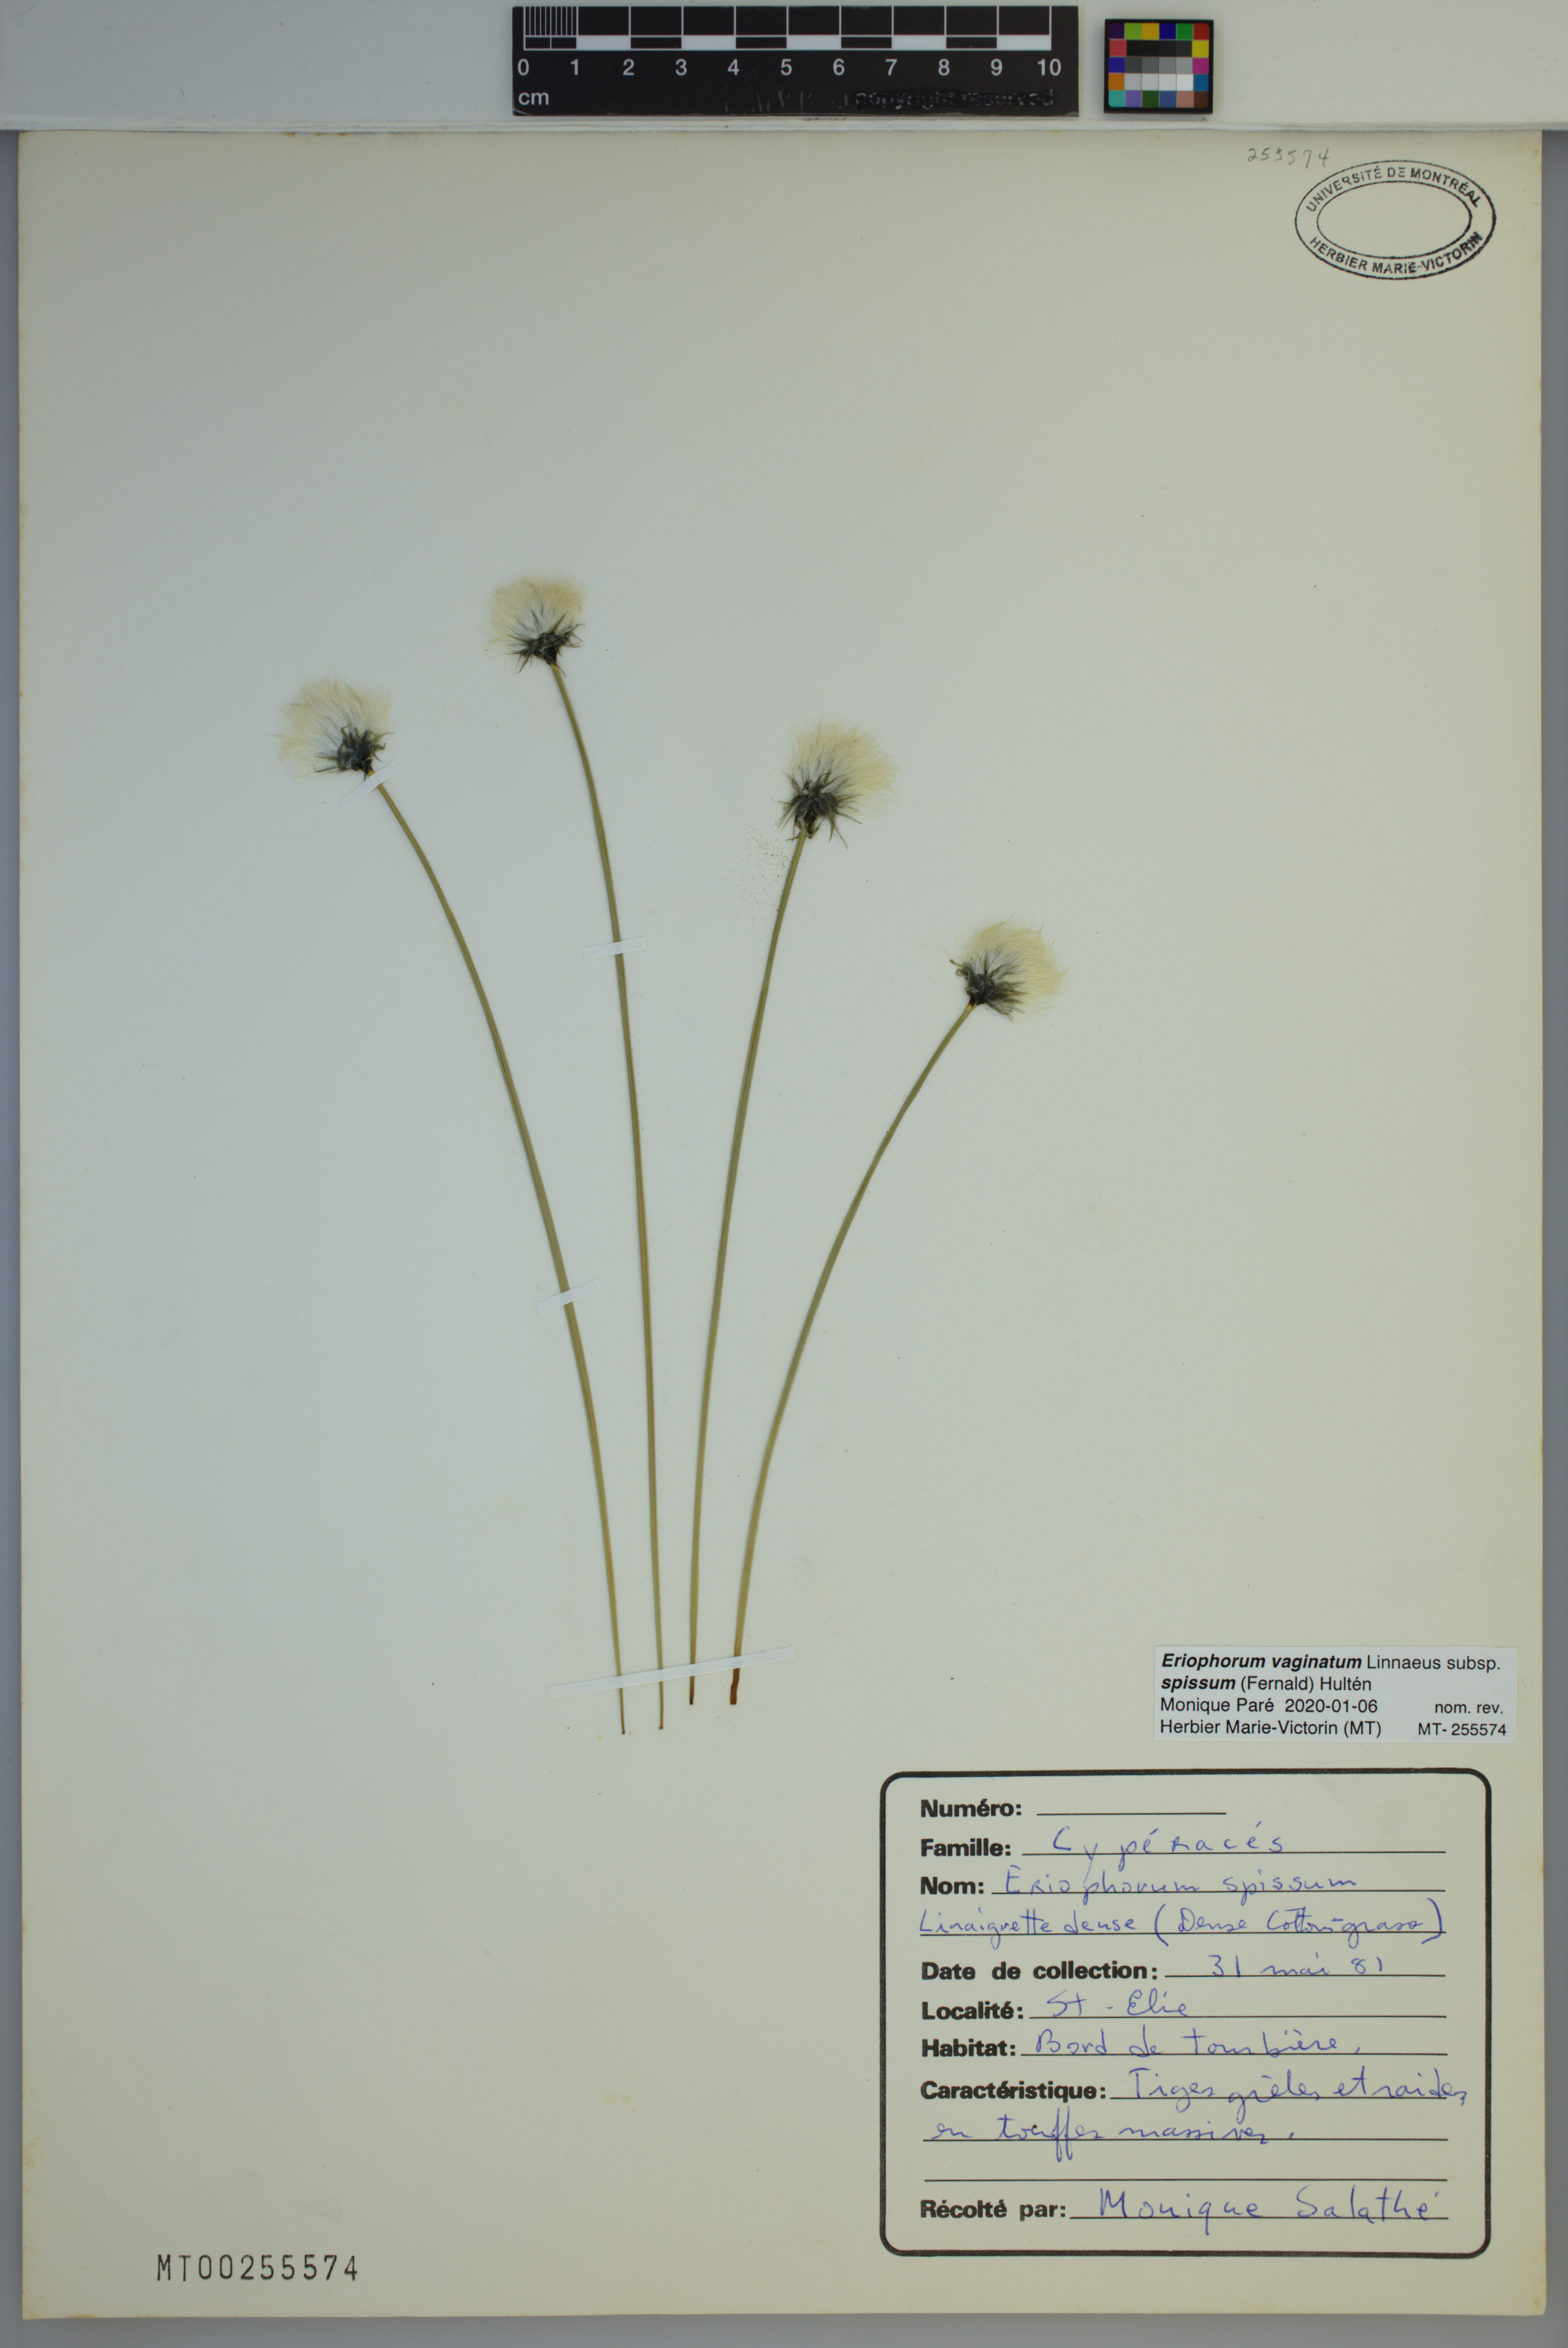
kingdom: Plantae
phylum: Tracheophyta
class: Liliopsida
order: Poales
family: Cyperaceae
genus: Eriophorum
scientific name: Eriophorum vaginatum
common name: Hare's-tail cottongrass
